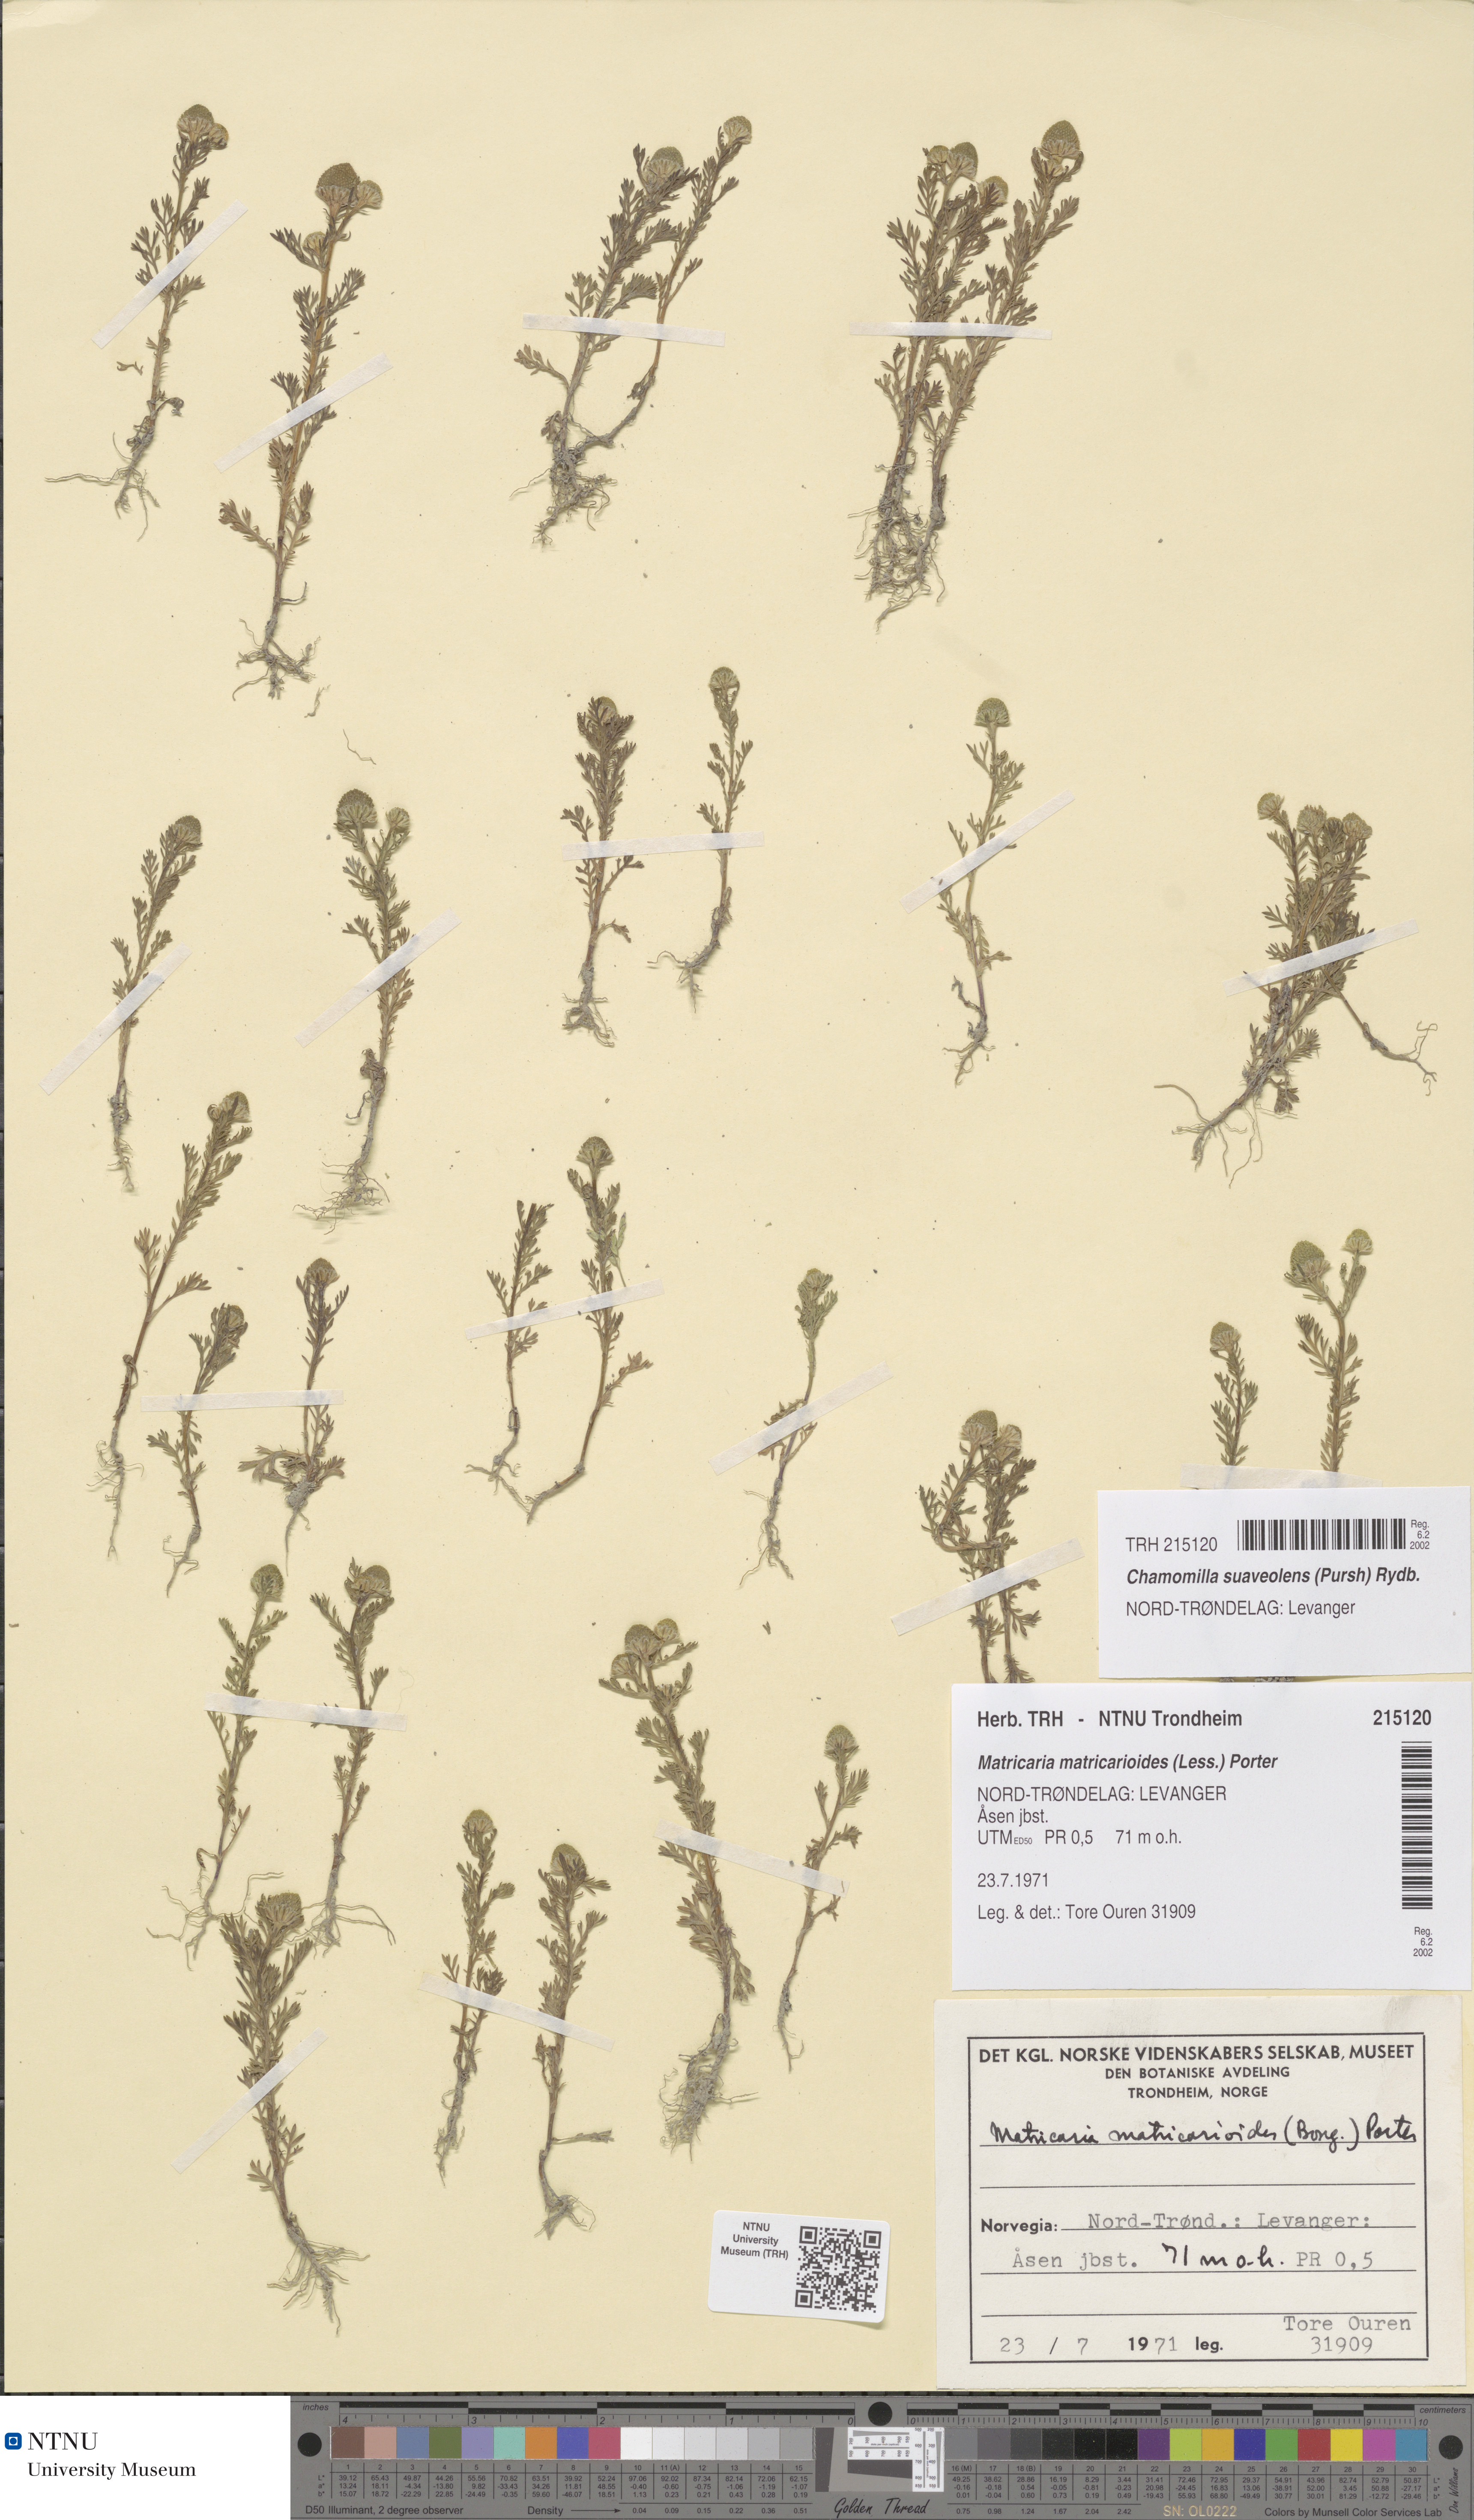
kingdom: Plantae
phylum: Tracheophyta
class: Magnoliopsida
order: Asterales
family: Asteraceae
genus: Matricaria
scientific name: Matricaria discoidea
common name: Disc mayweed
